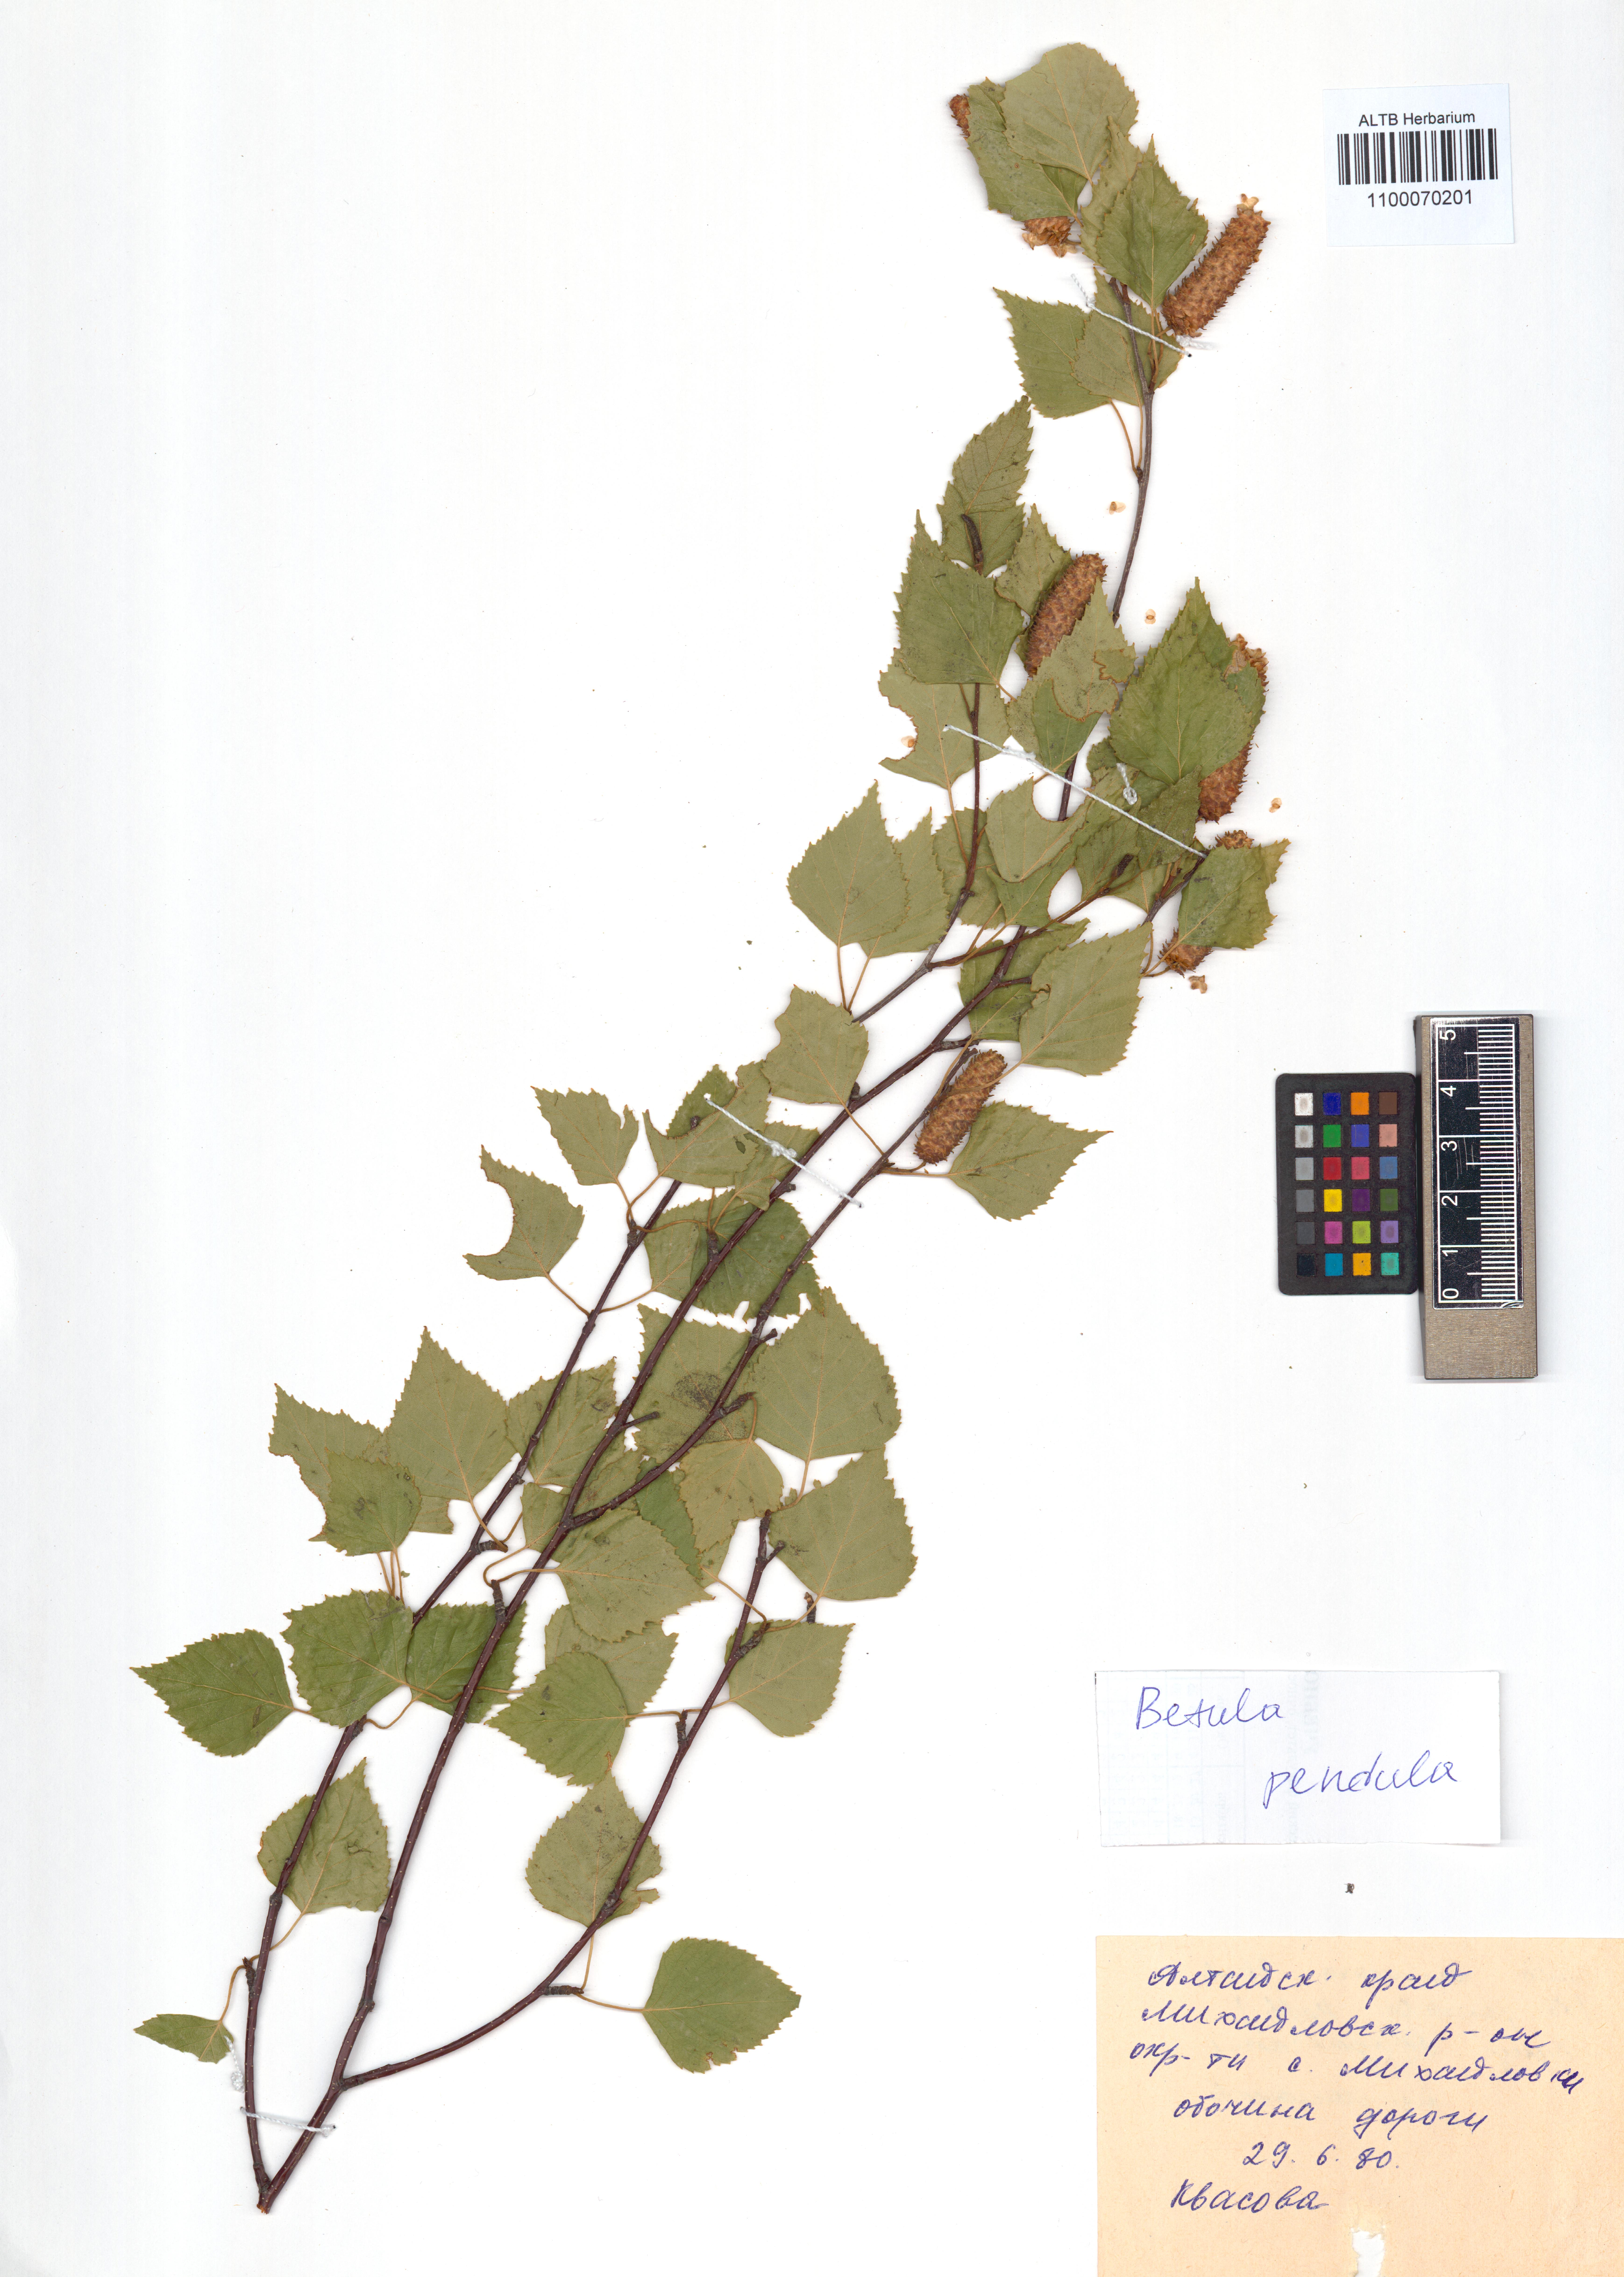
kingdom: Plantae
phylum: Tracheophyta
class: Magnoliopsida
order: Fagales
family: Betulaceae
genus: Betula
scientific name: Betula pendula
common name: Silver birch
